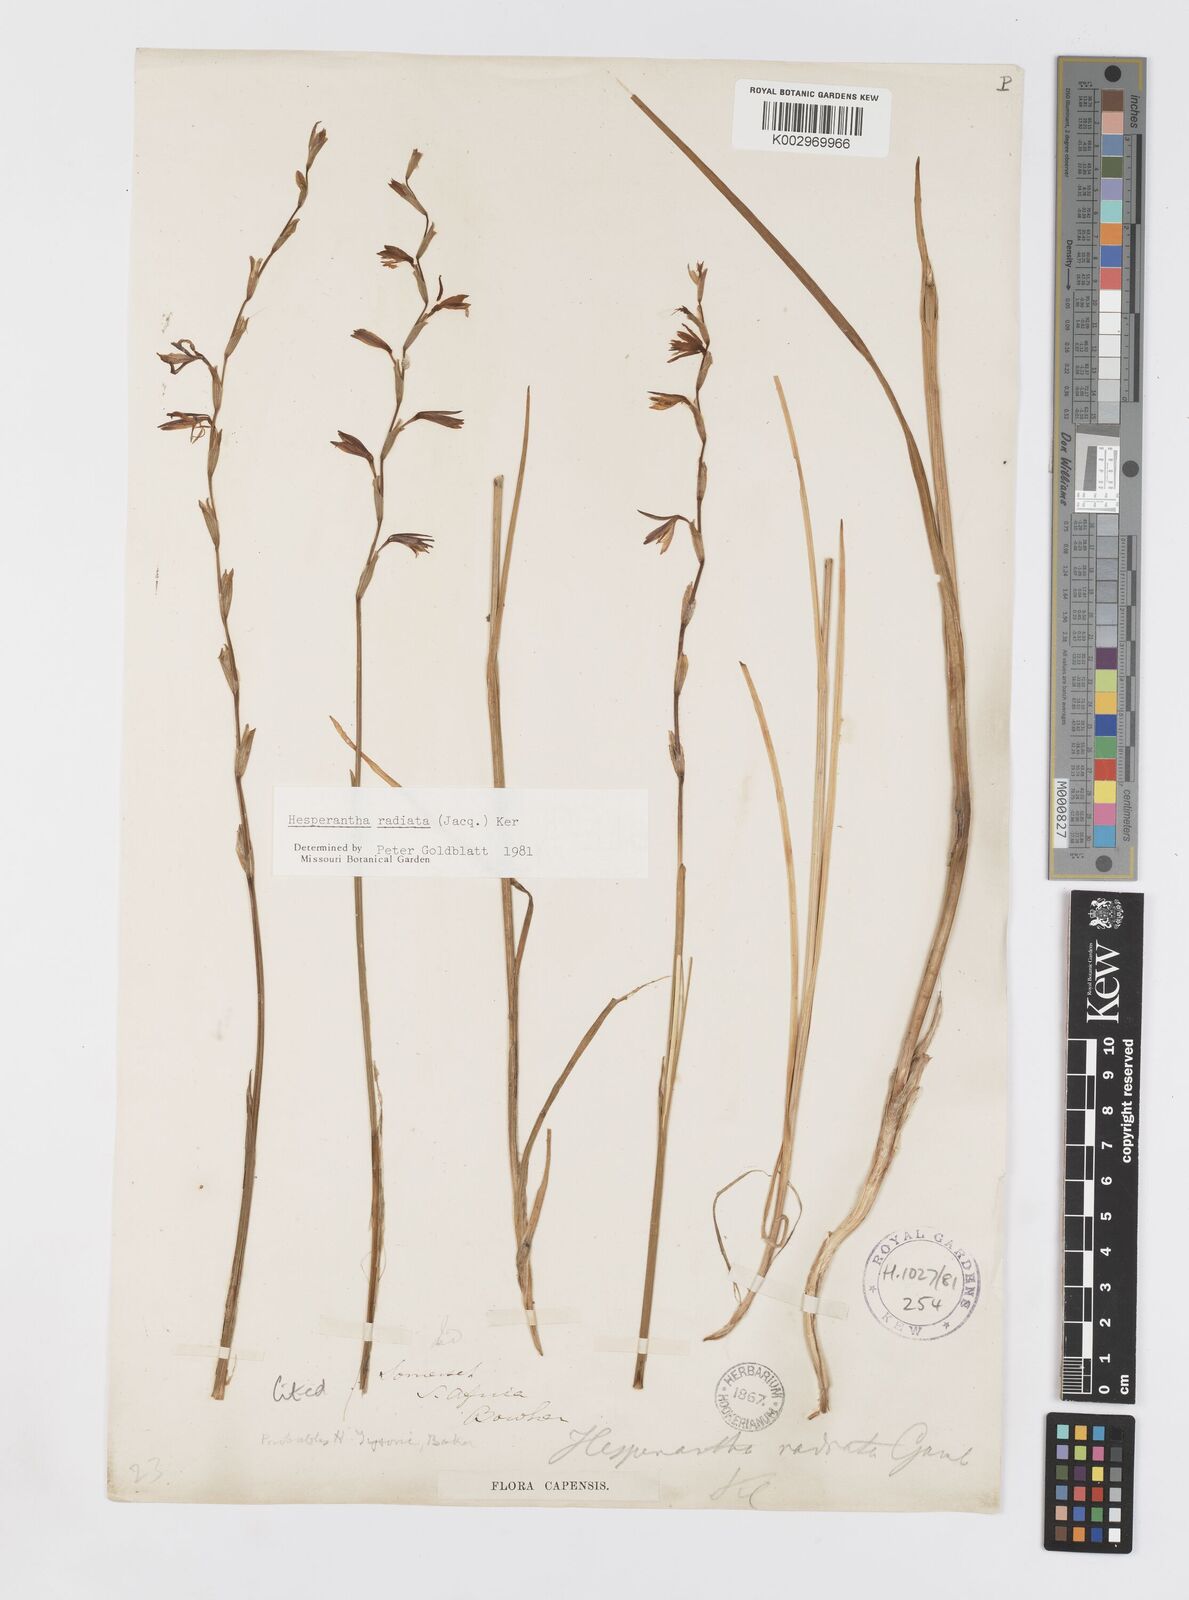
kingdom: Plantae
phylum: Tracheophyta
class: Liliopsida
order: Asparagales
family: Iridaceae
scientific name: Iridaceae
